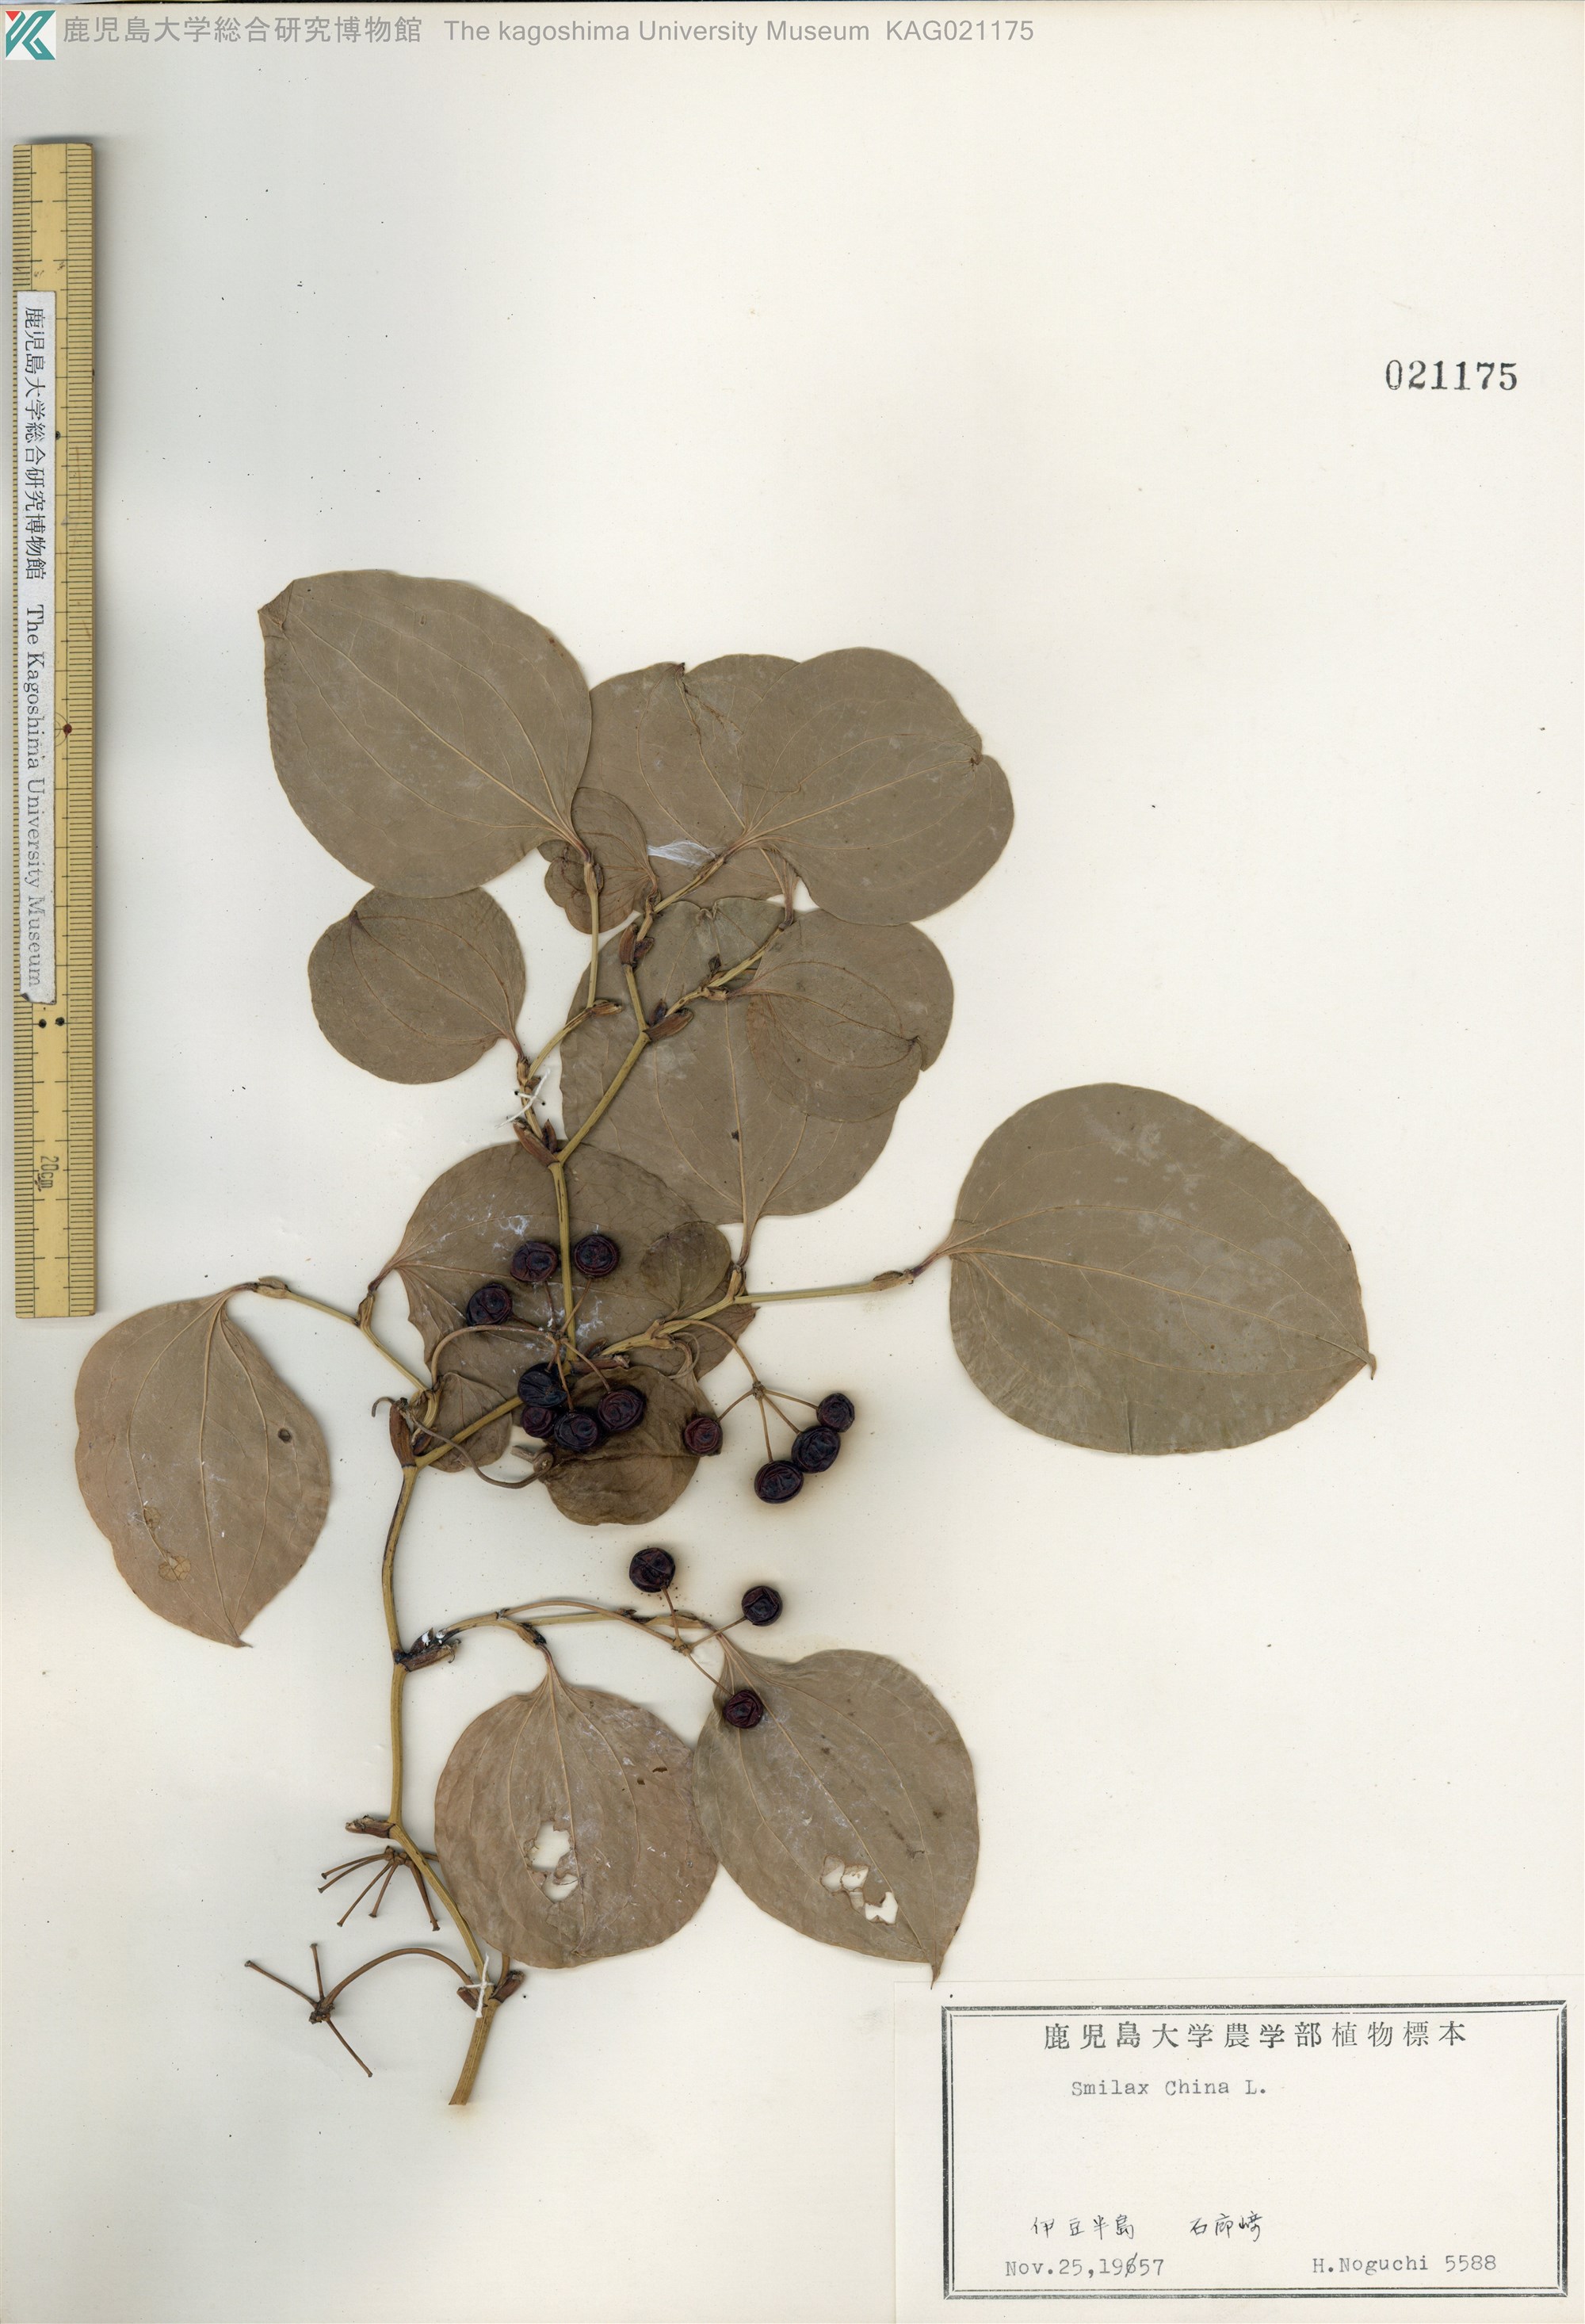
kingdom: Plantae
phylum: Tracheophyta
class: Liliopsida
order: Liliales
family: Smilacaceae
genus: Smilax
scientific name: Smilax china
